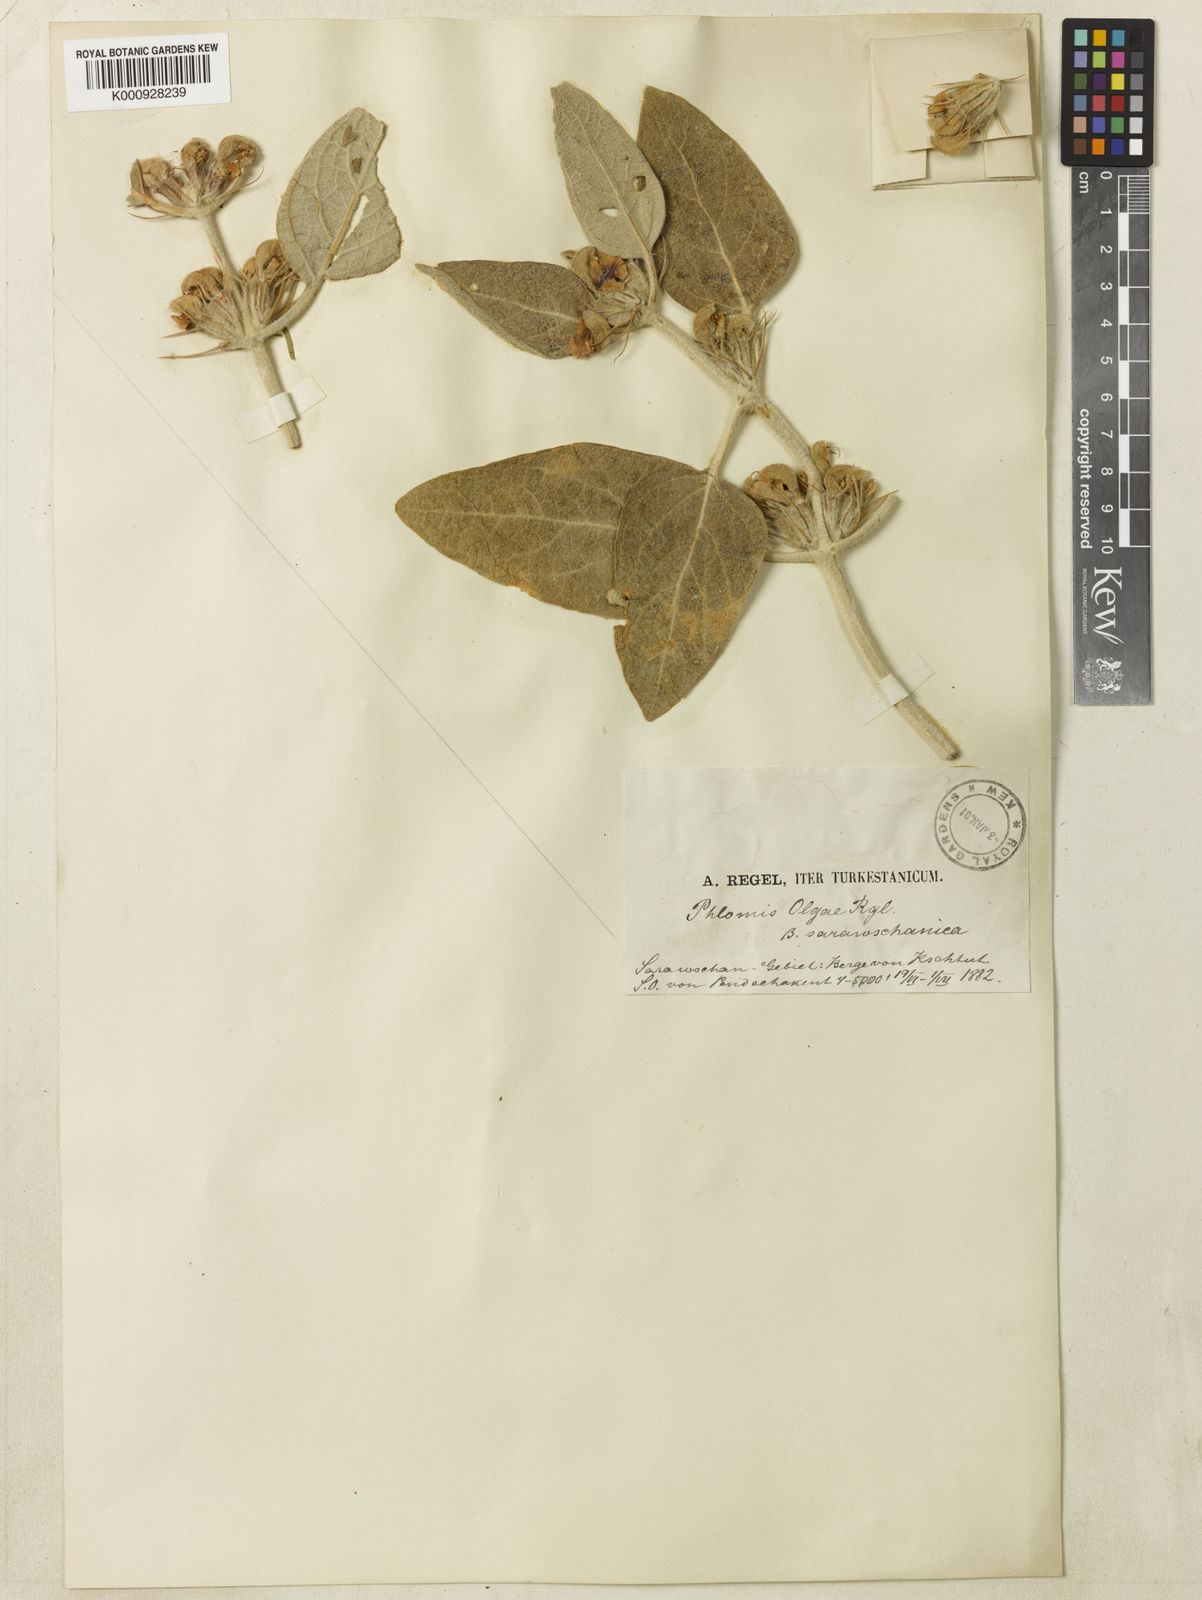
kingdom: Plantae
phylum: Tracheophyta
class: Magnoliopsida
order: Lamiales
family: Lamiaceae
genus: Phlomis
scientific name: Phlomis olgae
